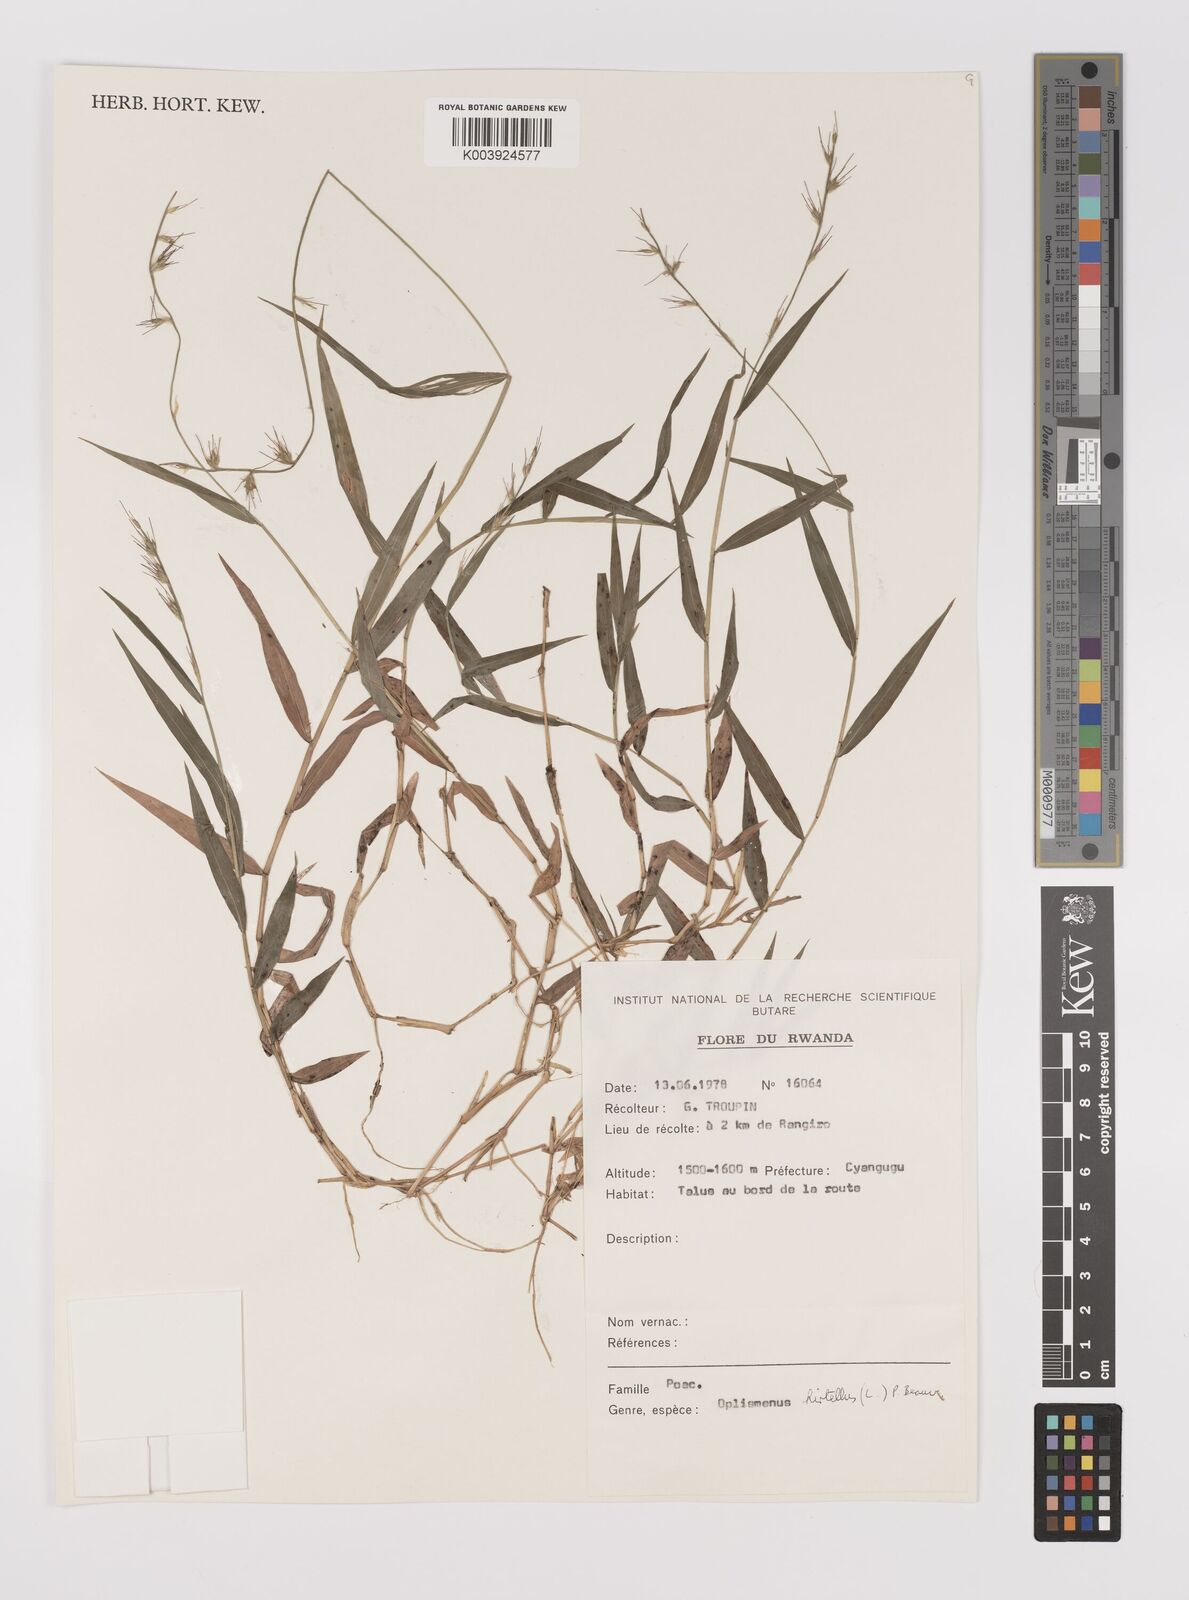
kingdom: Plantae
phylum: Tracheophyta
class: Liliopsida
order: Poales
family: Poaceae
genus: Oplismenus
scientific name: Oplismenus hirtellus
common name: Basketgrass
